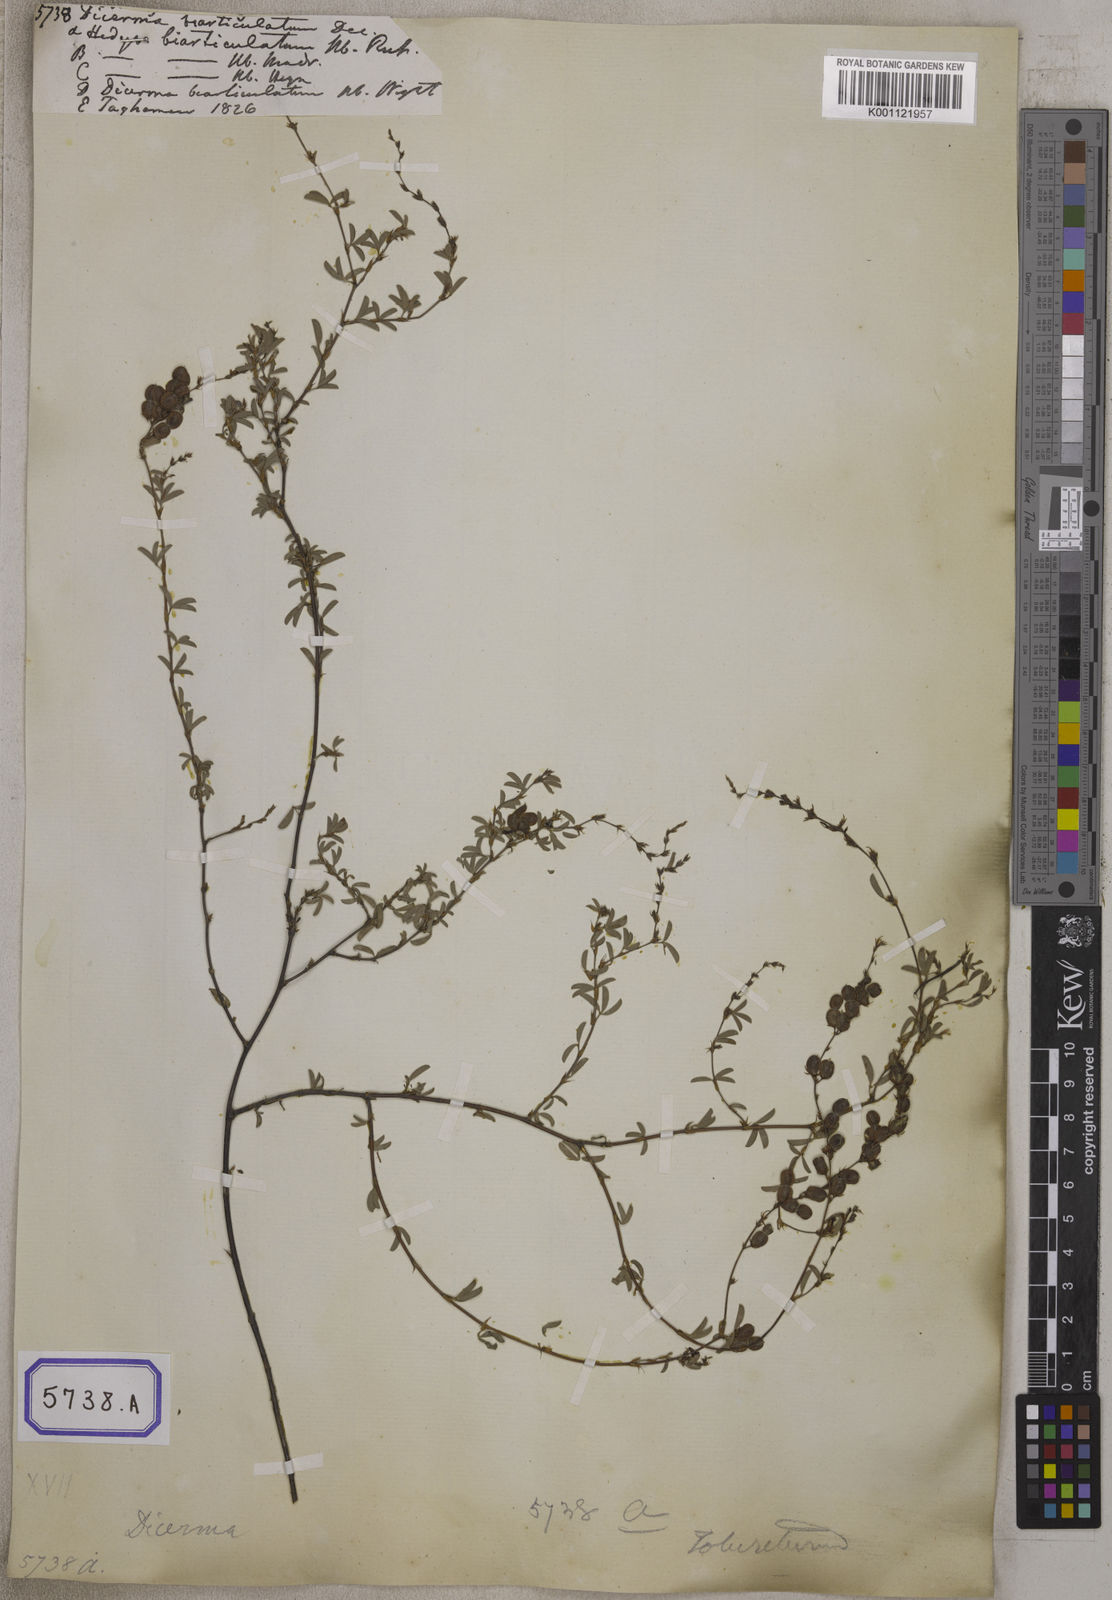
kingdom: Plantae
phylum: Tracheophyta
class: Magnoliopsida
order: Fabales
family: Fabaceae
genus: Aphyllodium
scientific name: Aphyllodium biarticulatum
